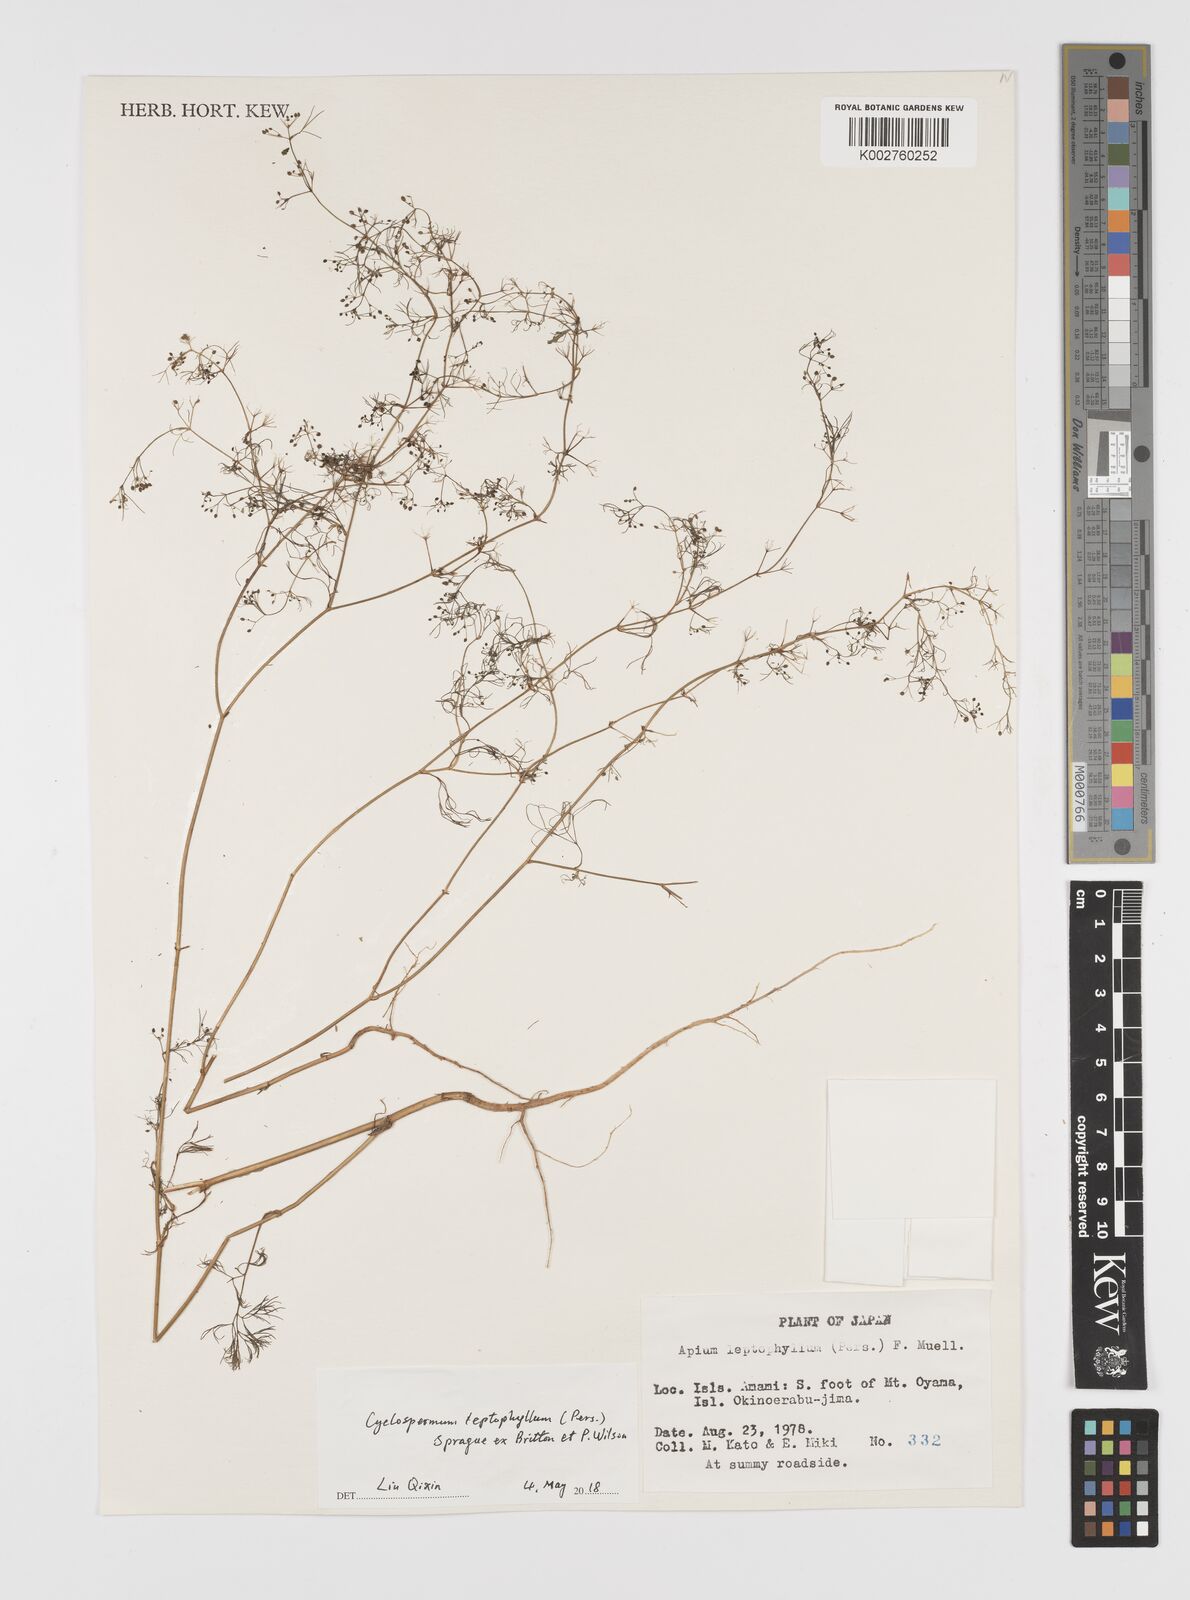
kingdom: Plantae
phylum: Tracheophyta
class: Magnoliopsida
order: Apiales
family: Apiaceae
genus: Cyclospermum
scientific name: Cyclospermum leptophyllum
